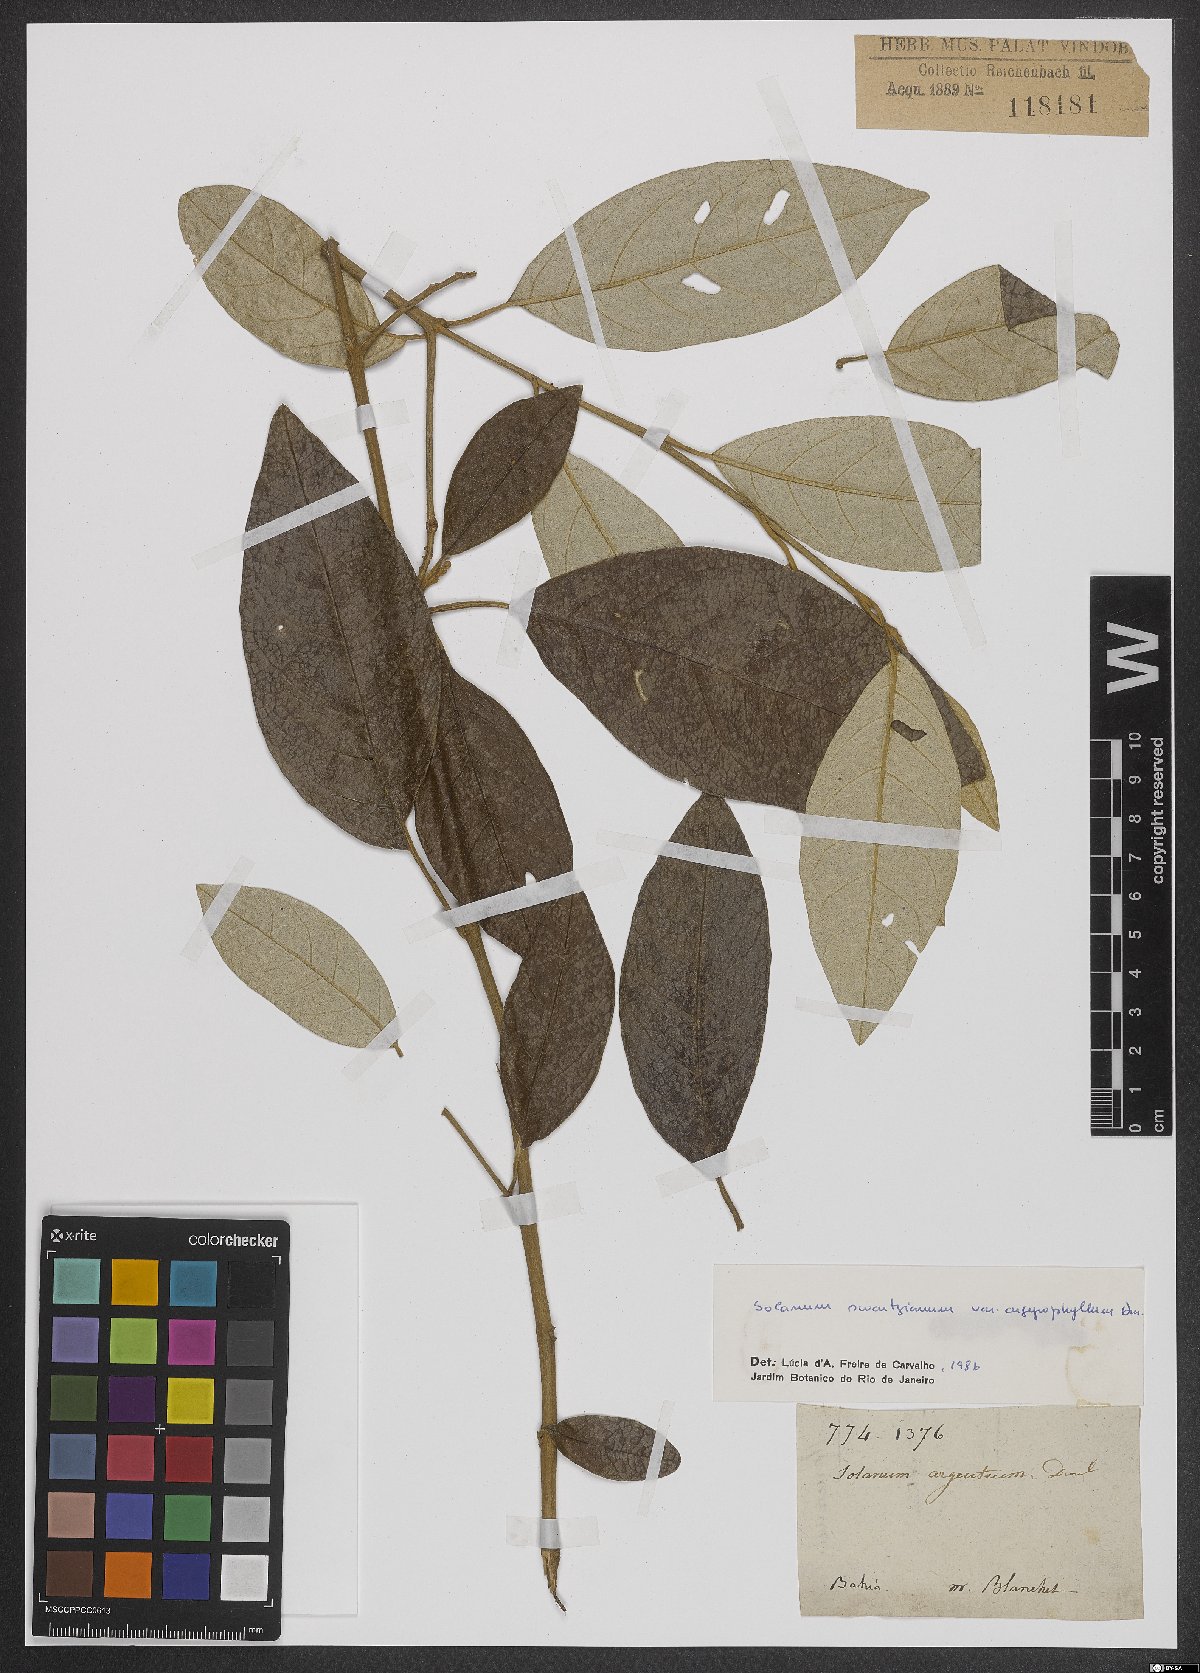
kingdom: Plantae
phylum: Tracheophyta
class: Magnoliopsida
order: Solanales
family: Solanaceae
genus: Solanum
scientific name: Solanum swartzianum
